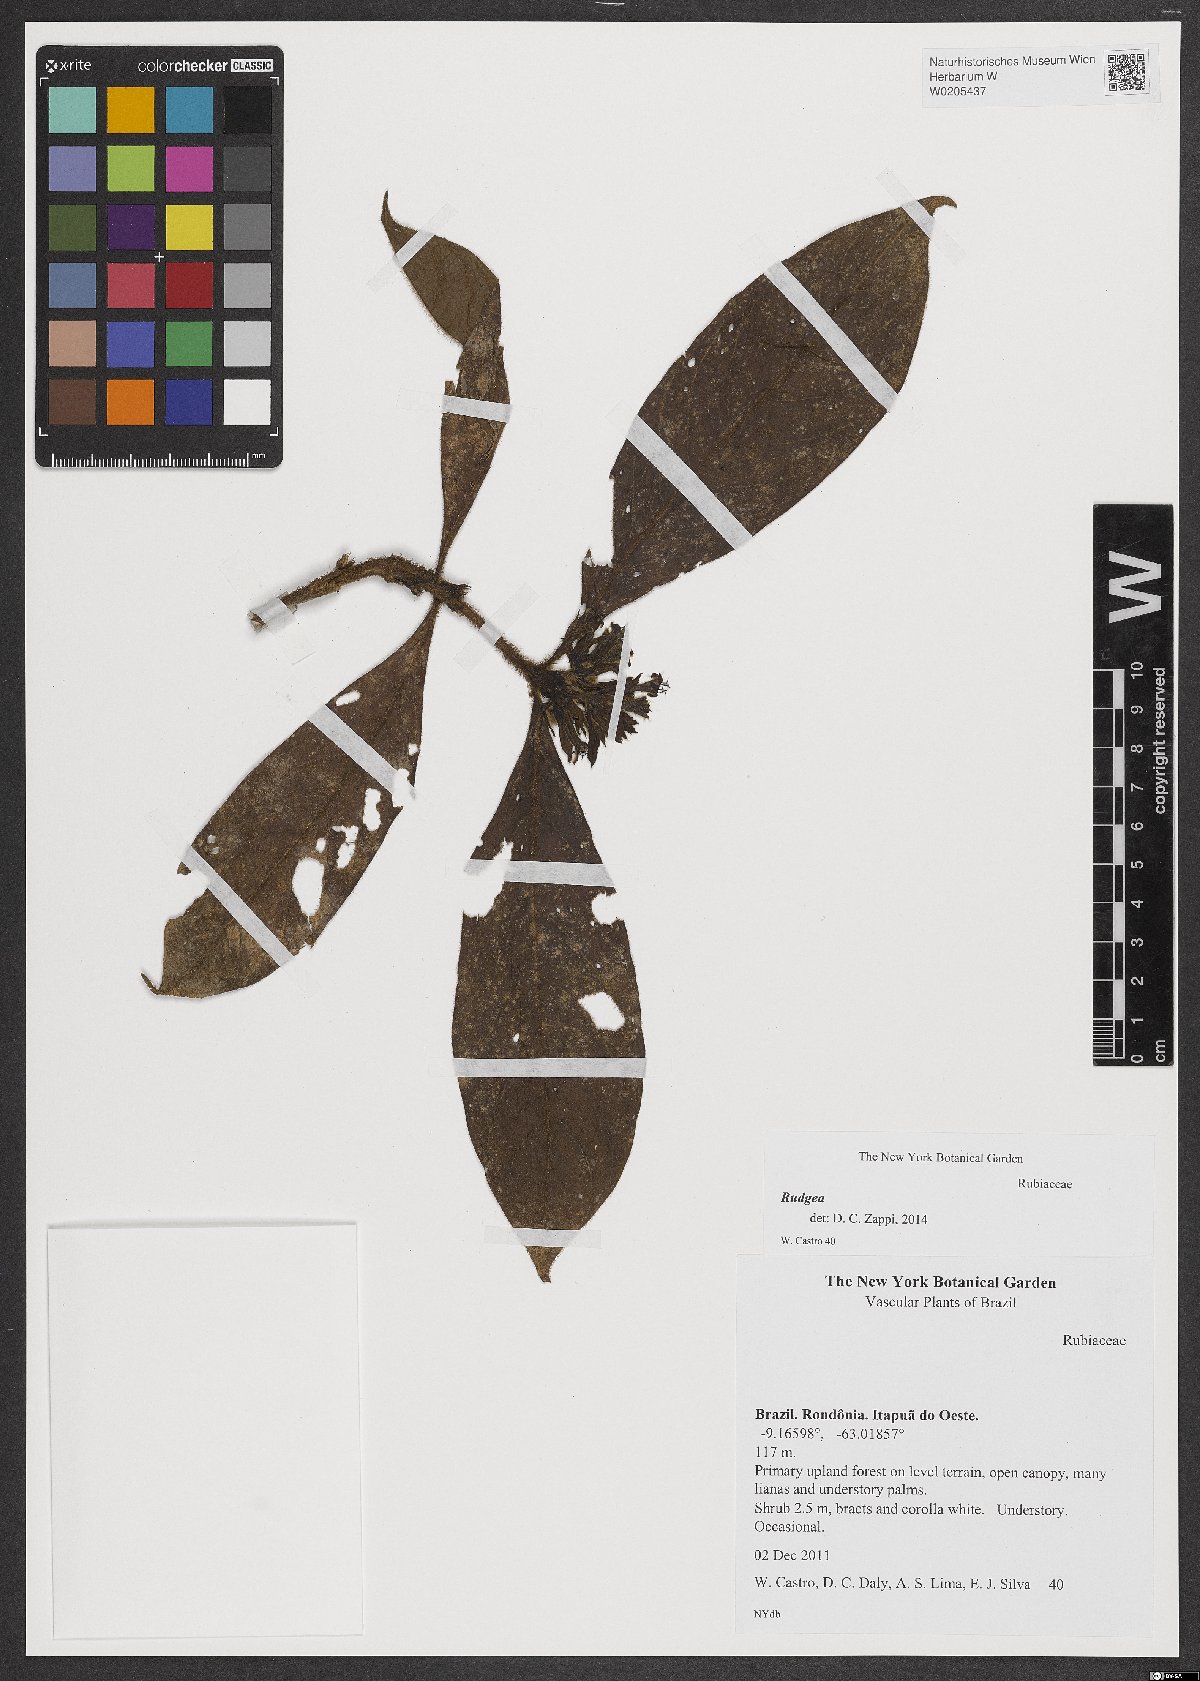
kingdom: Plantae
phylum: Tracheophyta
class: Magnoliopsida
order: Gentianales
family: Rubiaceae
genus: Rudgea
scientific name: Rudgea
